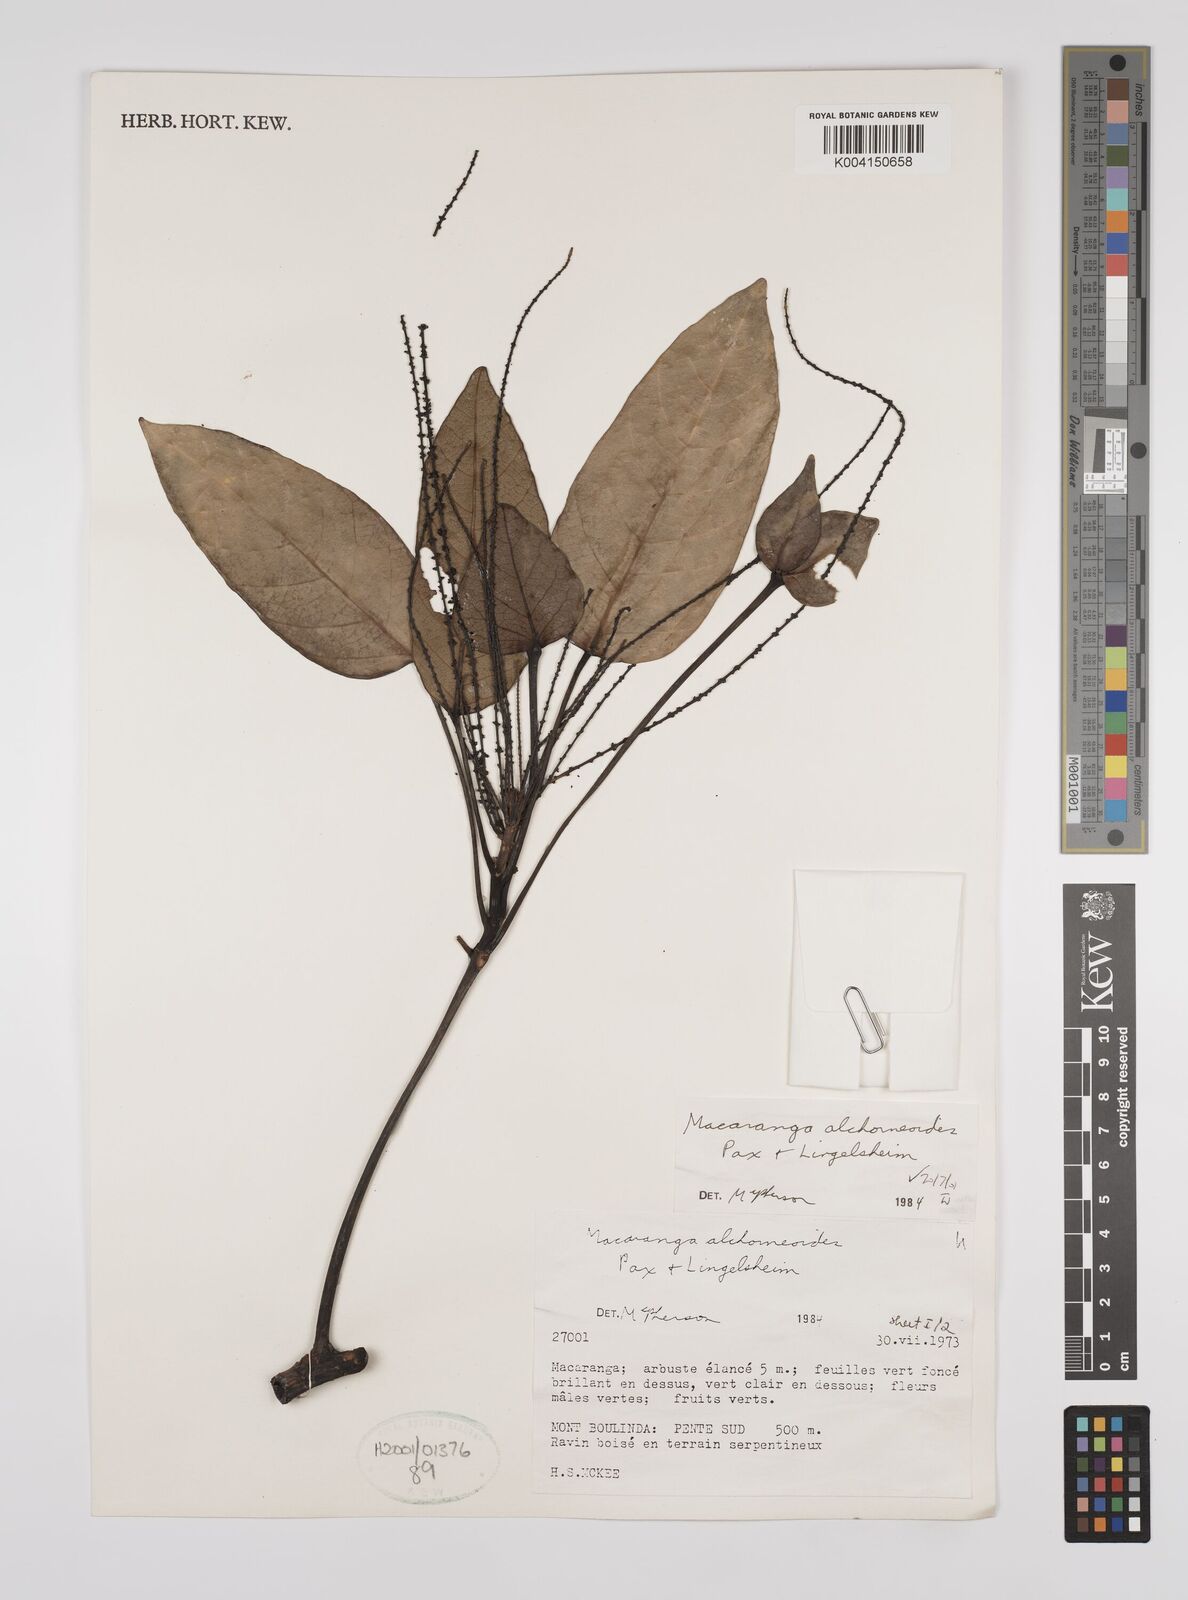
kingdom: Plantae
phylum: Tracheophyta
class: Magnoliopsida
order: Malpighiales
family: Euphorbiaceae
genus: Macaranga
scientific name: Macaranga alchorneoides
